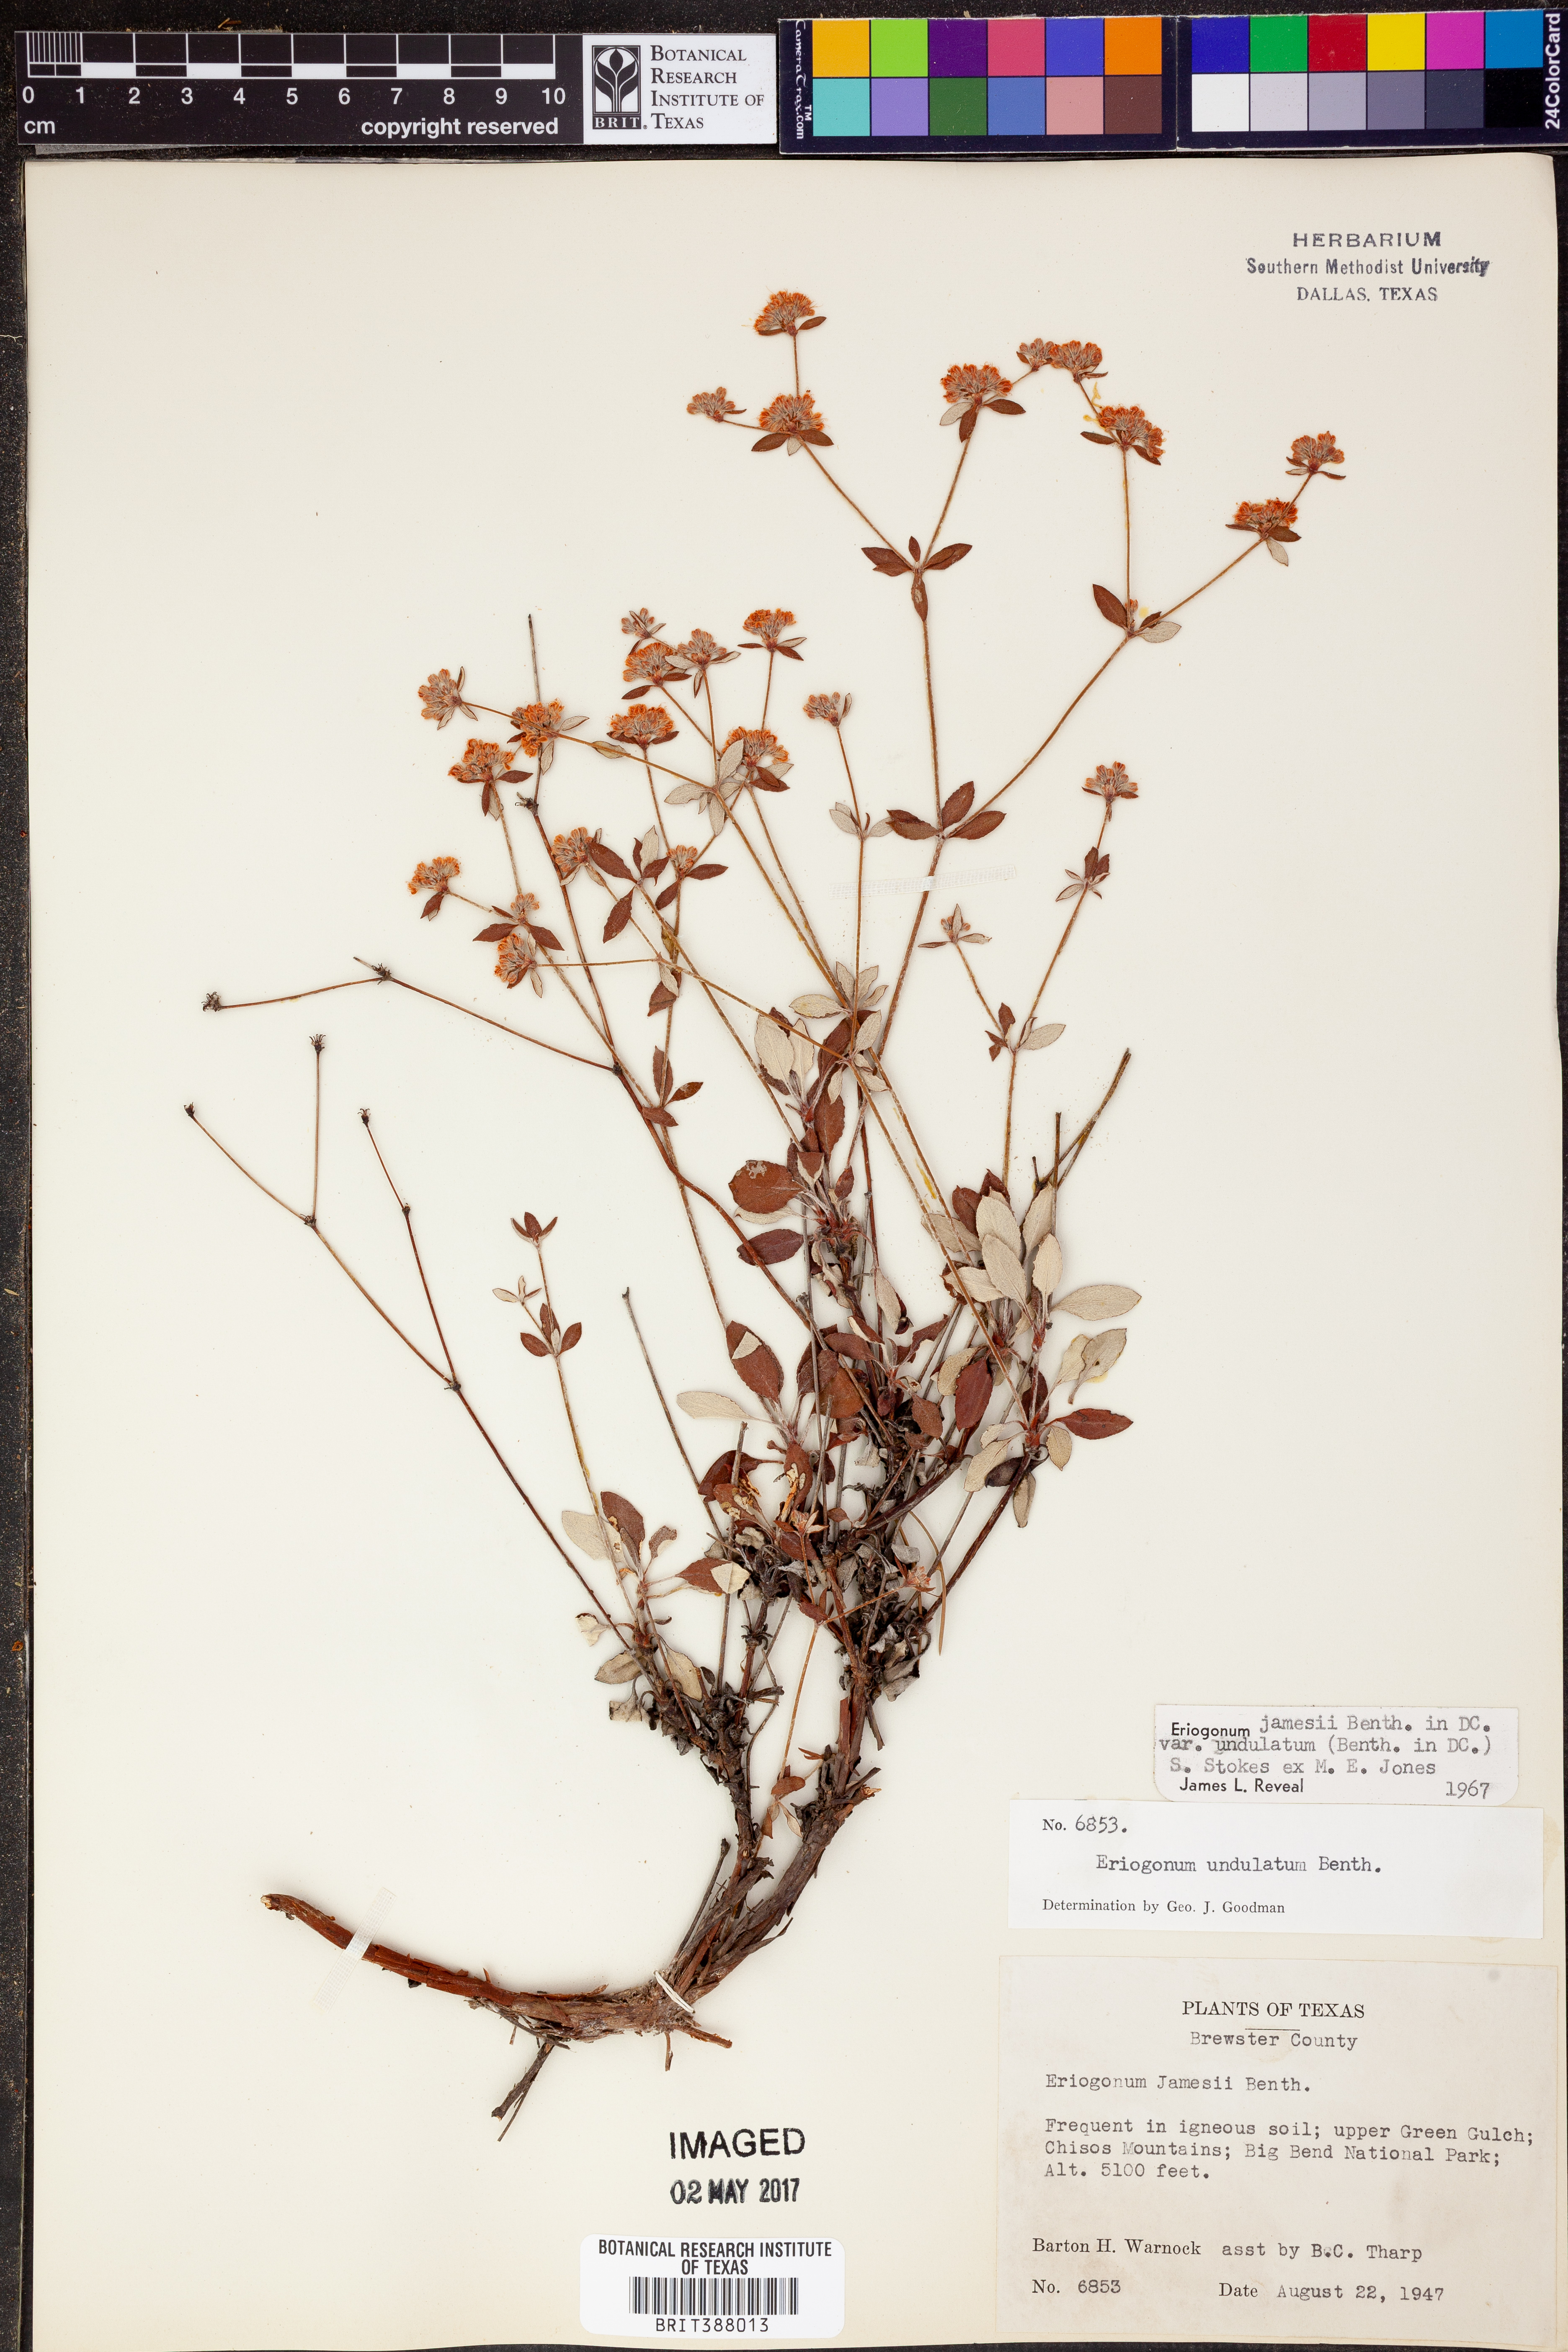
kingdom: Plantae
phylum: Tracheophyta
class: Magnoliopsida
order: Caryophyllales
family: Polygonaceae
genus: Eriogonum
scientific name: Eriogonum jamesii
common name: Antelope-sage
